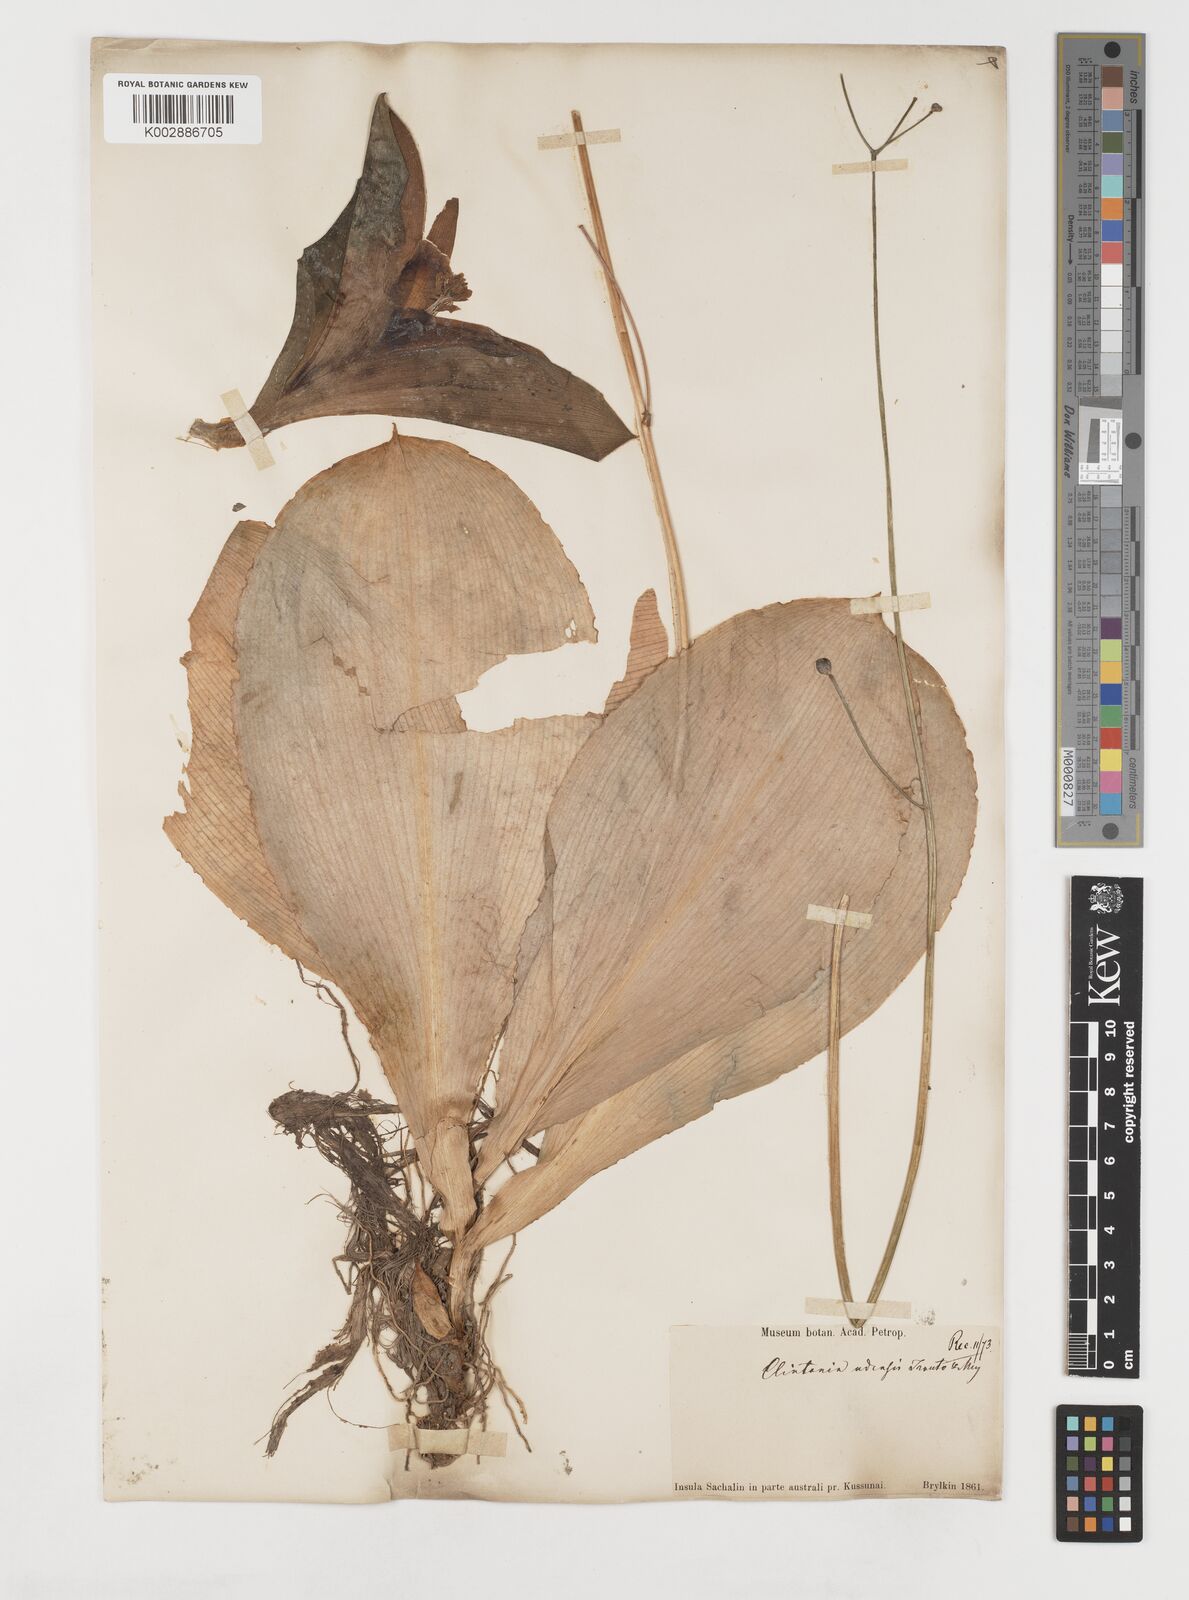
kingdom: Plantae
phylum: Tracheophyta
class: Liliopsida
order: Liliales
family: Liliaceae
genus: Clintonia
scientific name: Clintonia udensis
